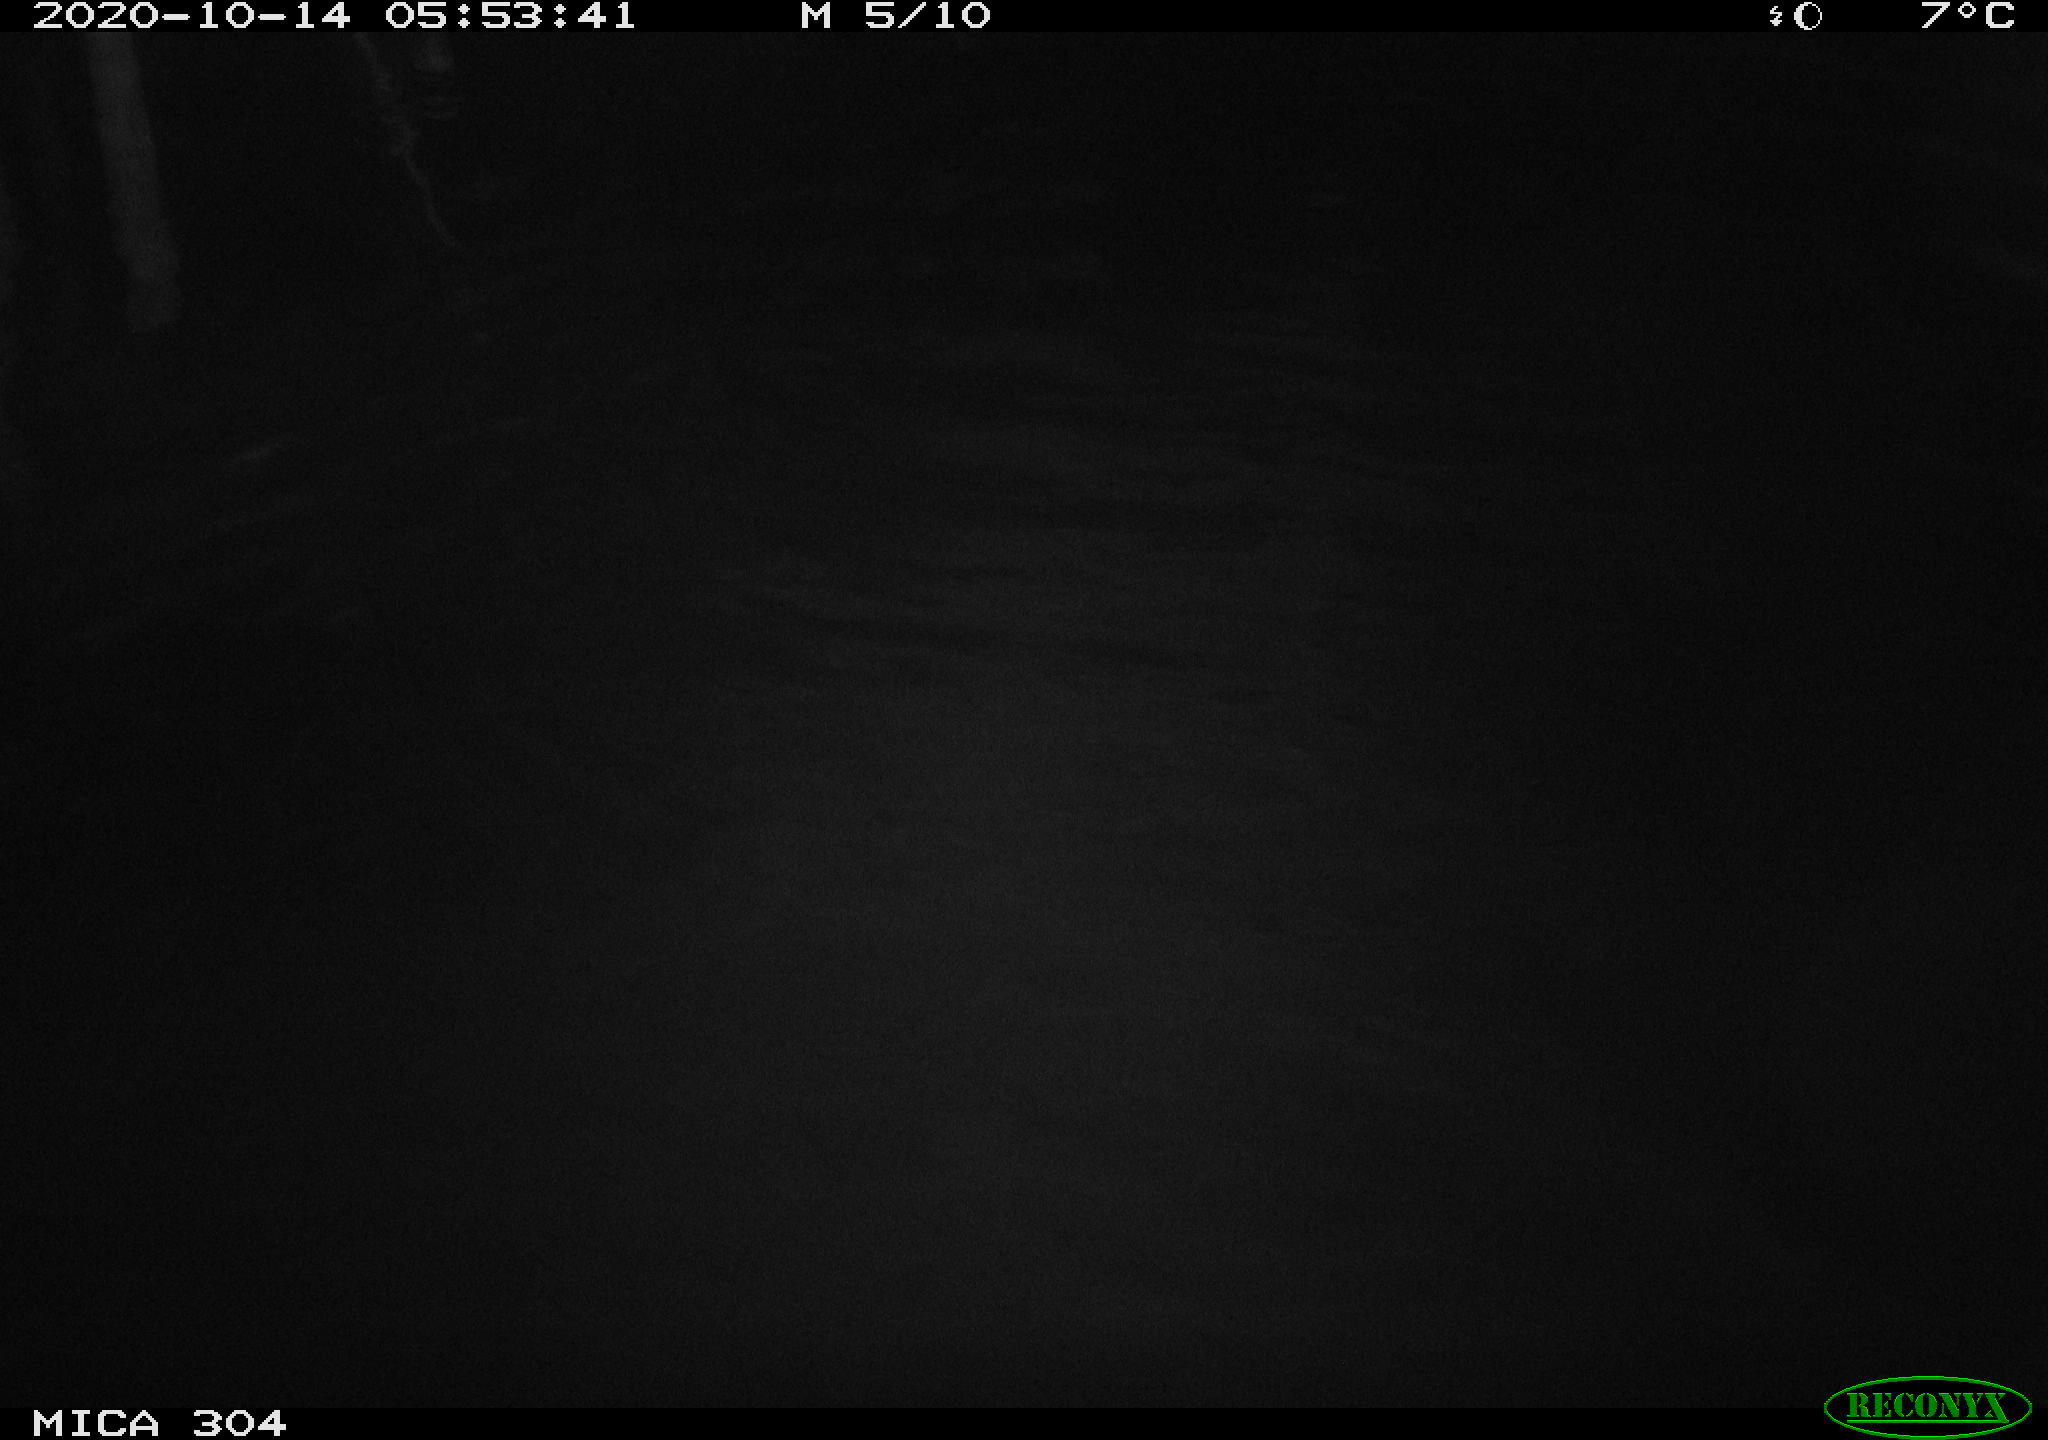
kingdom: Animalia
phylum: Chordata
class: Mammalia
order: Rodentia
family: Cricetidae
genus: Ondatra
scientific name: Ondatra zibethicus
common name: Muskrat
